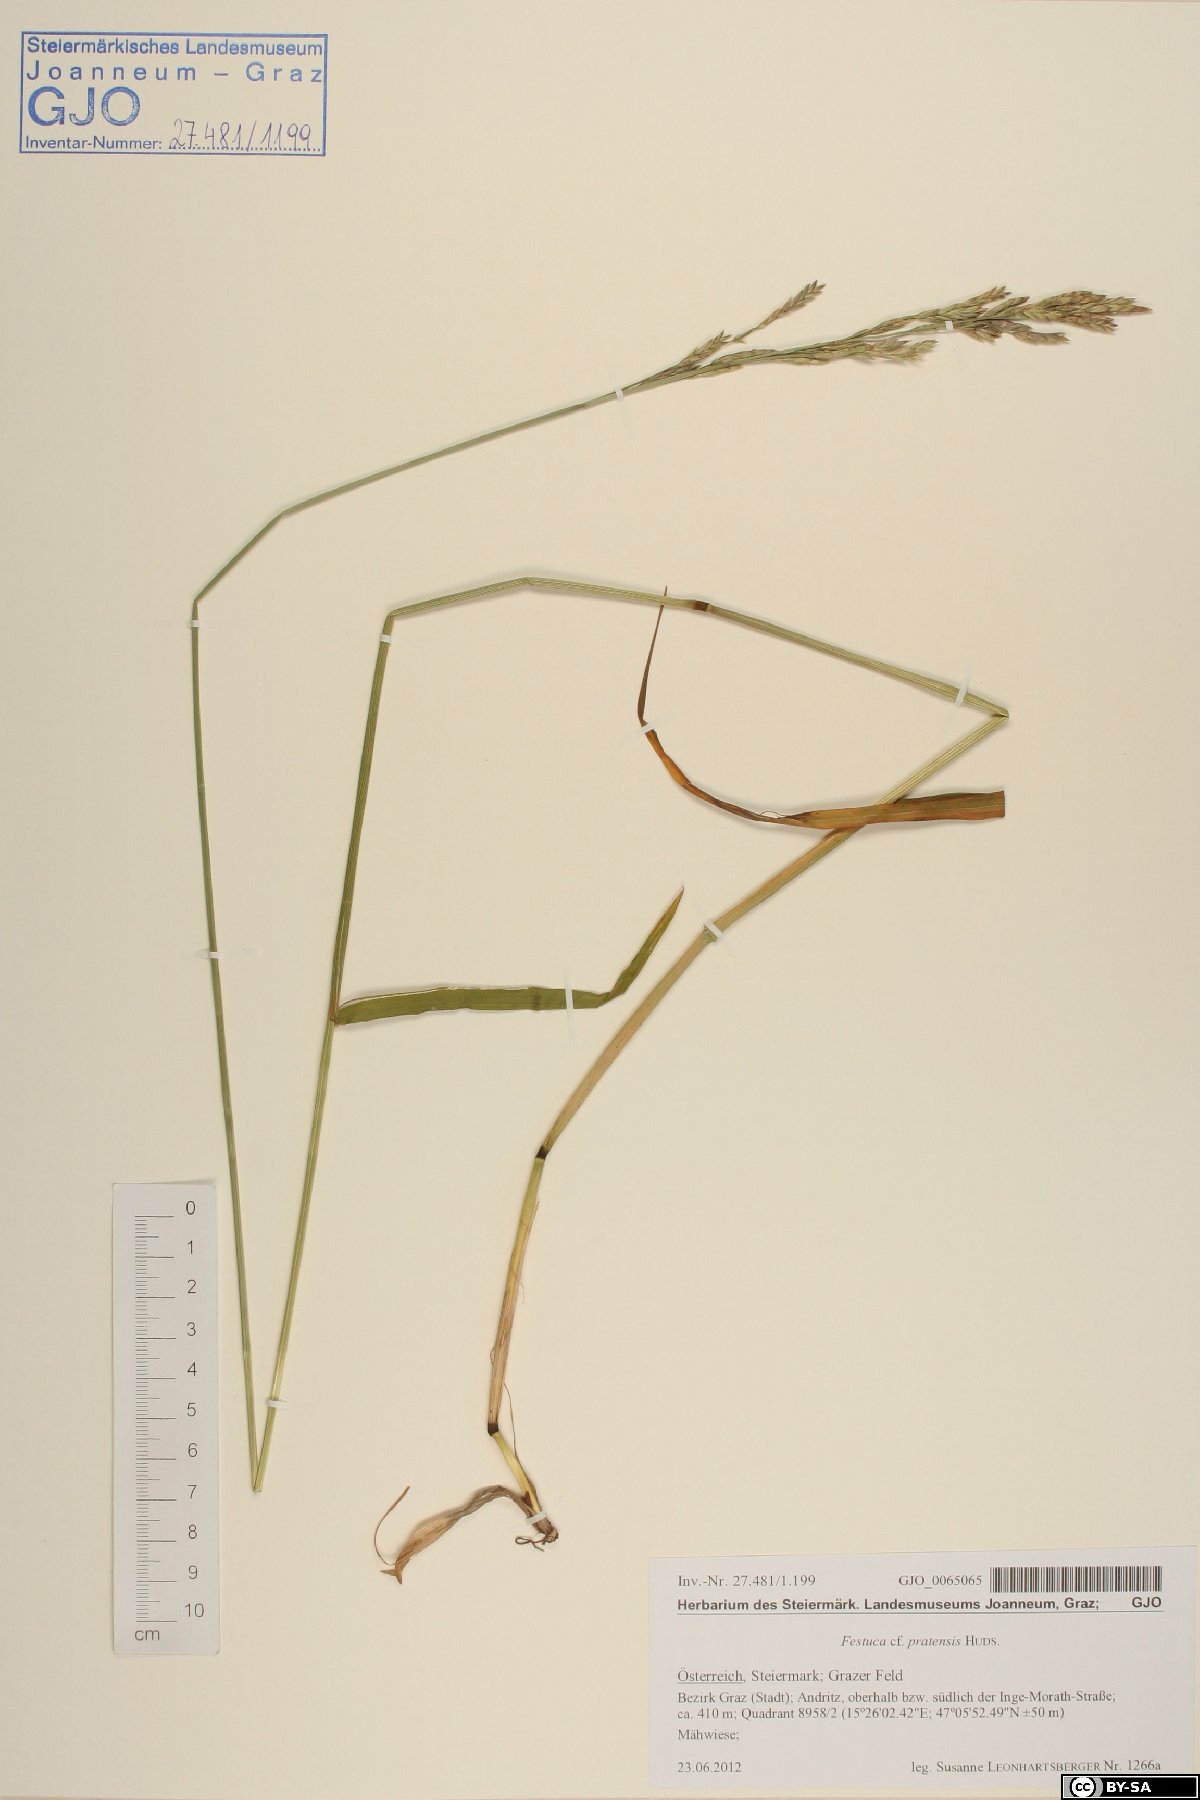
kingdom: Plantae
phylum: Tracheophyta
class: Liliopsida
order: Poales
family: Poaceae
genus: Lolium
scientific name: Lolium pratense
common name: Dover grass
